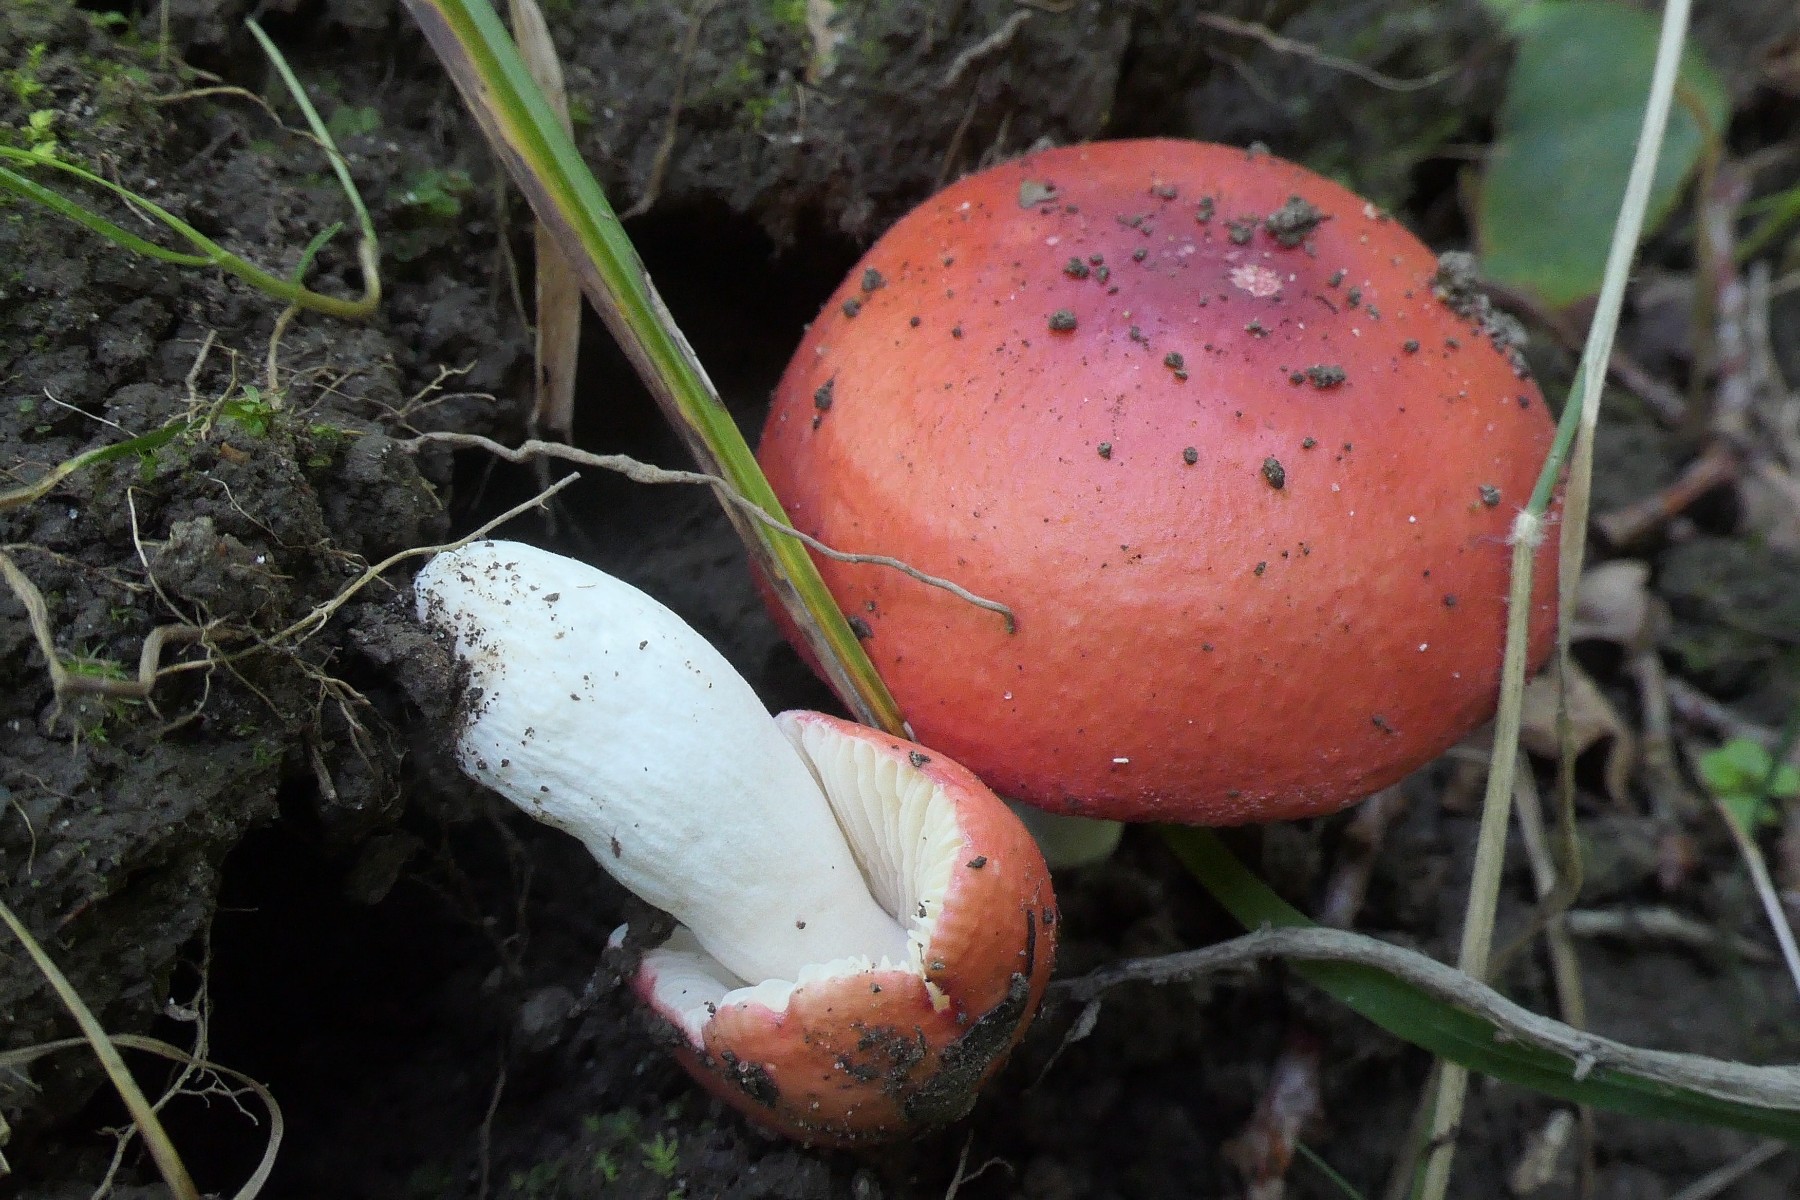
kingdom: Fungi
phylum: Basidiomycota
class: Agaricomycetes
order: Russulales
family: Russulaceae
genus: Russula
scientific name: Russula pseudointegra
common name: cinnoberrød skørhat
